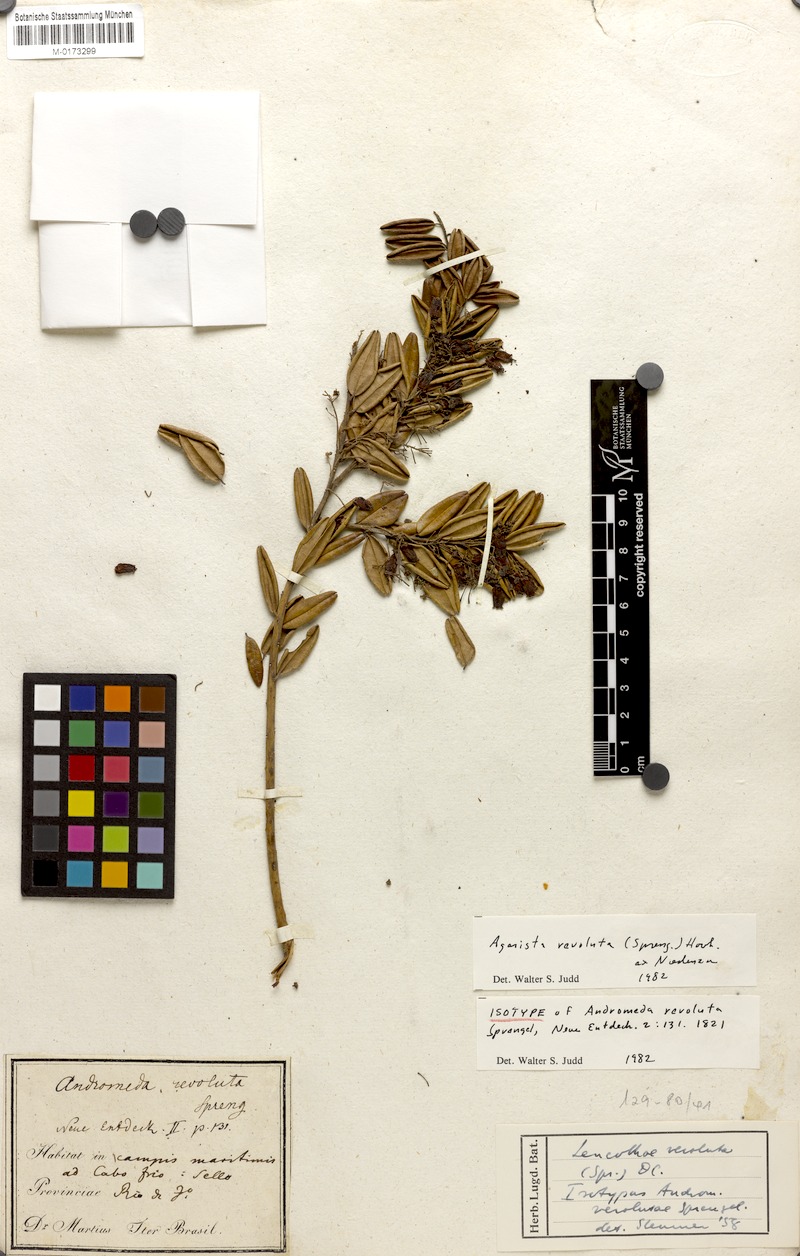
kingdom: Plantae
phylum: Tracheophyta
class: Magnoliopsida
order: Ericales
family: Ericaceae
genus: Agarista
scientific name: Agarista revoluta
